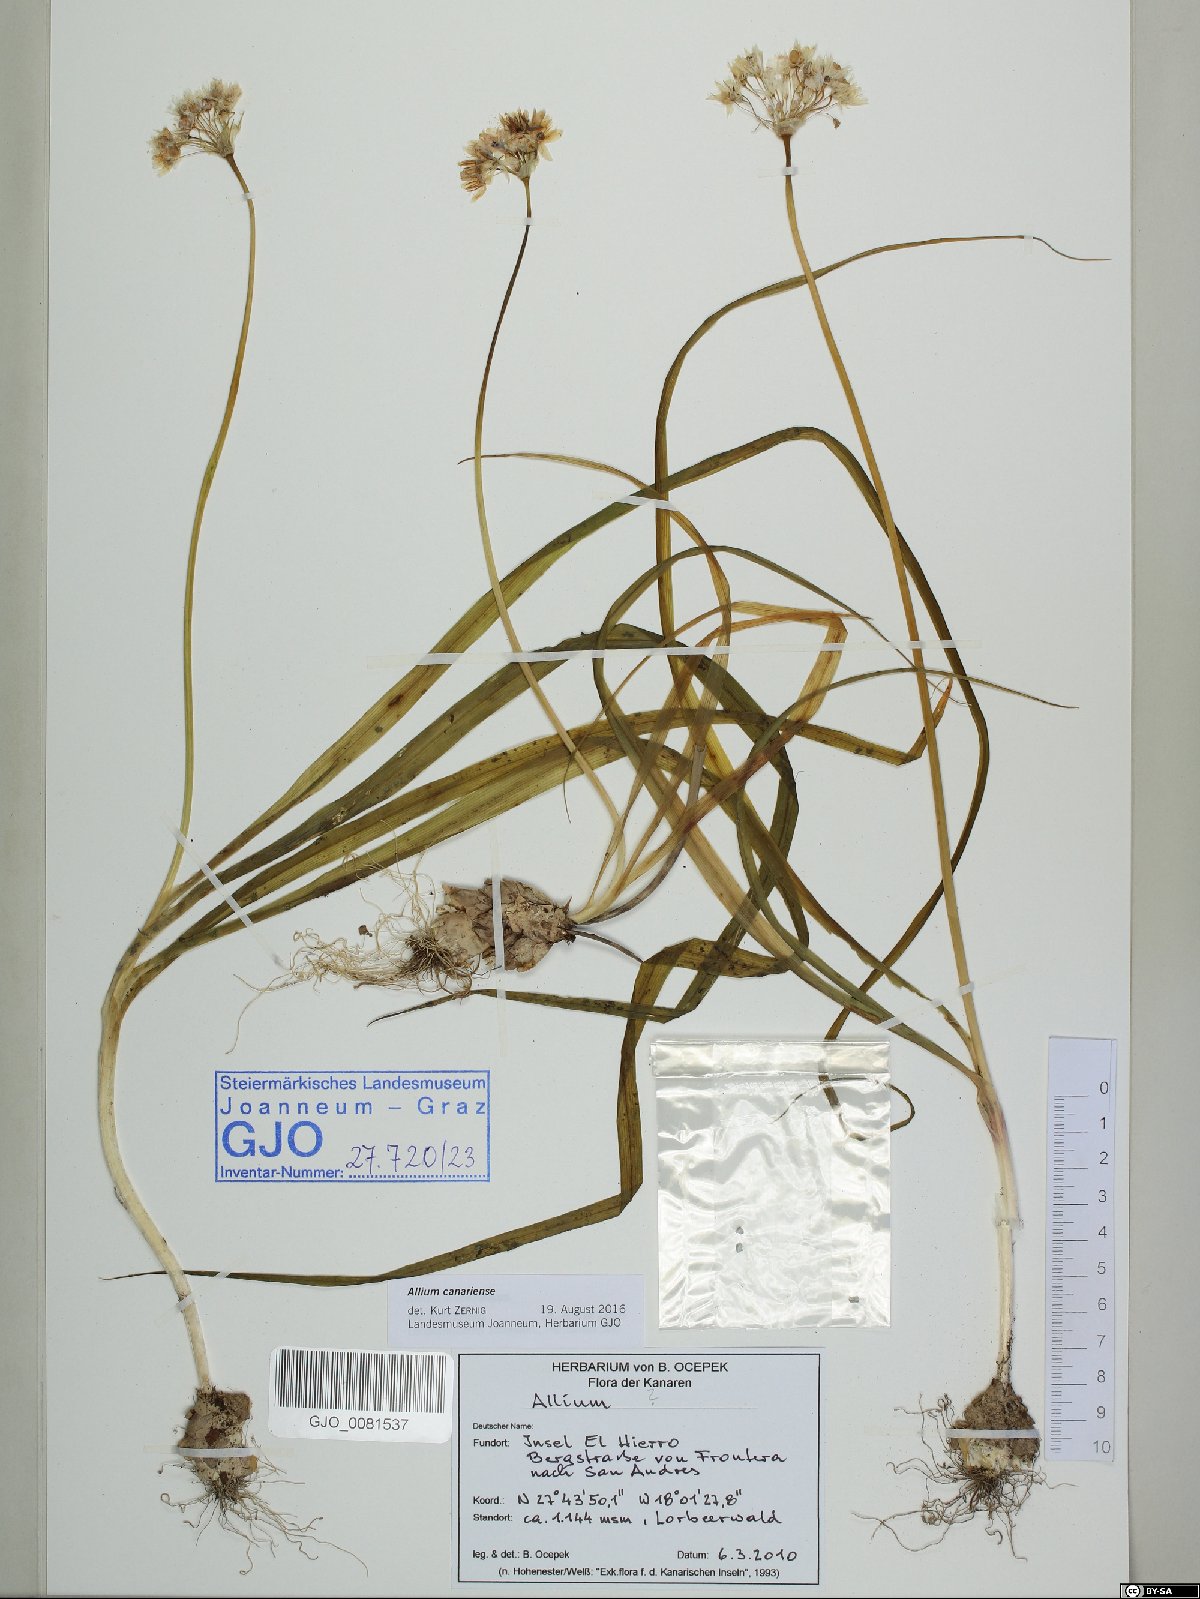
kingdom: Plantae
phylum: Tracheophyta
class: Liliopsida
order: Asparagales
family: Amaryllidaceae
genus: Allium
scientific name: Allium canariense
